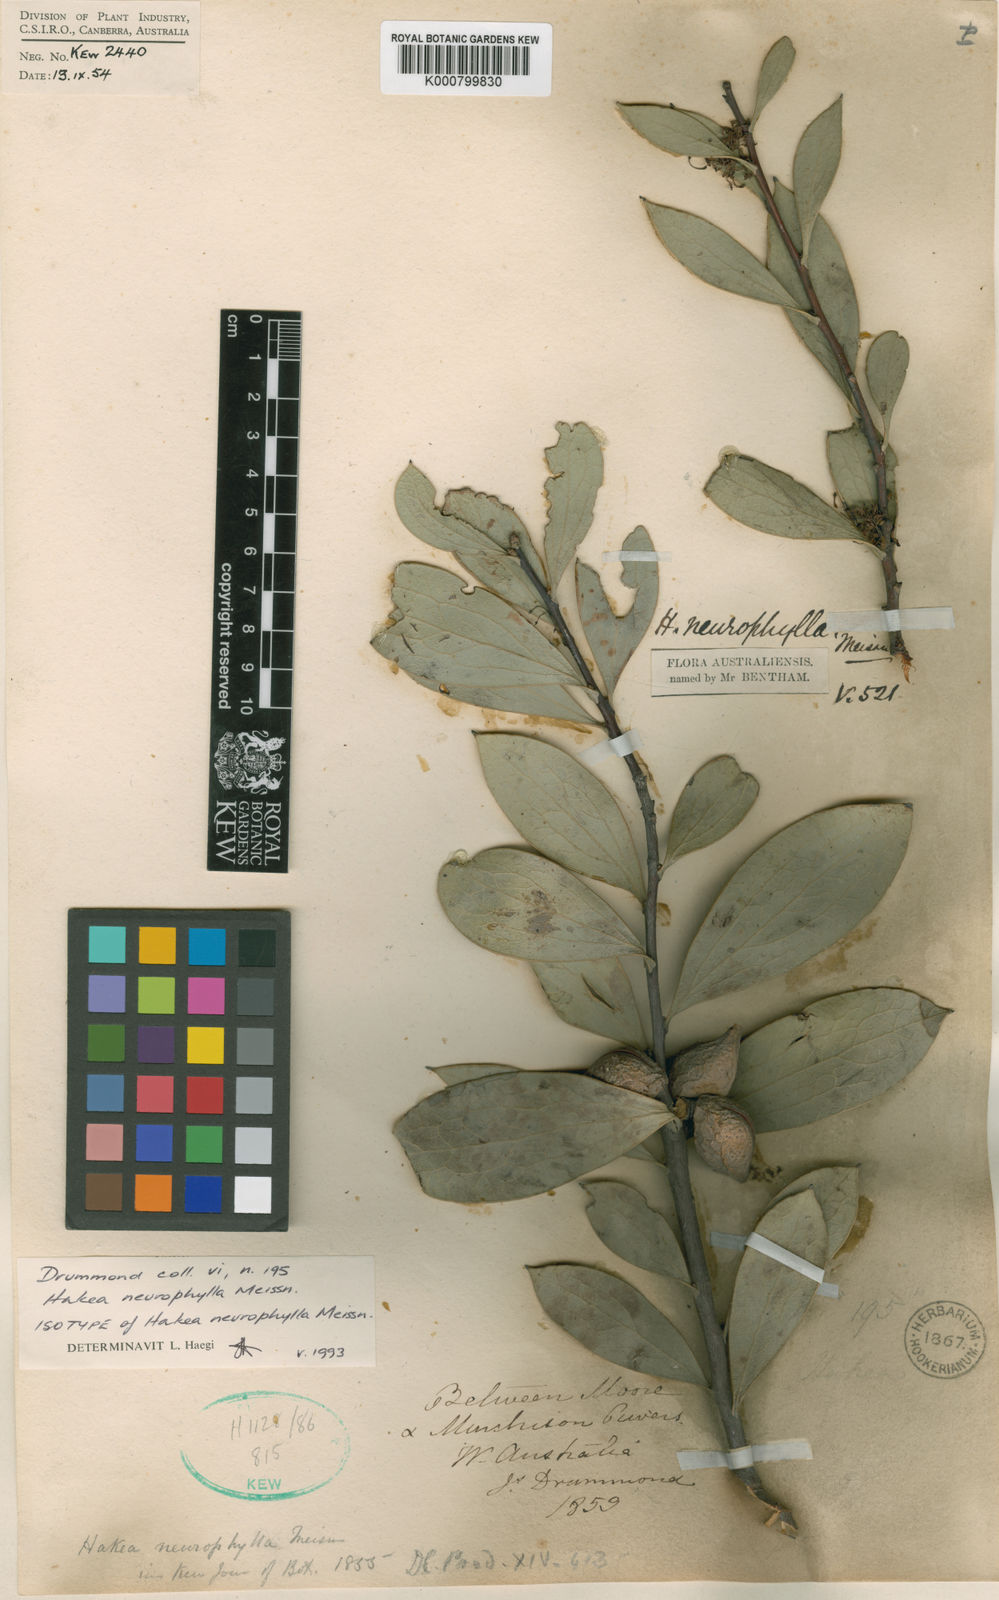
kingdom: Plantae
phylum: Tracheophyta
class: Magnoliopsida
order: Proteales
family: Proteaceae
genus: Hakea
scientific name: Hakea neurophylla
